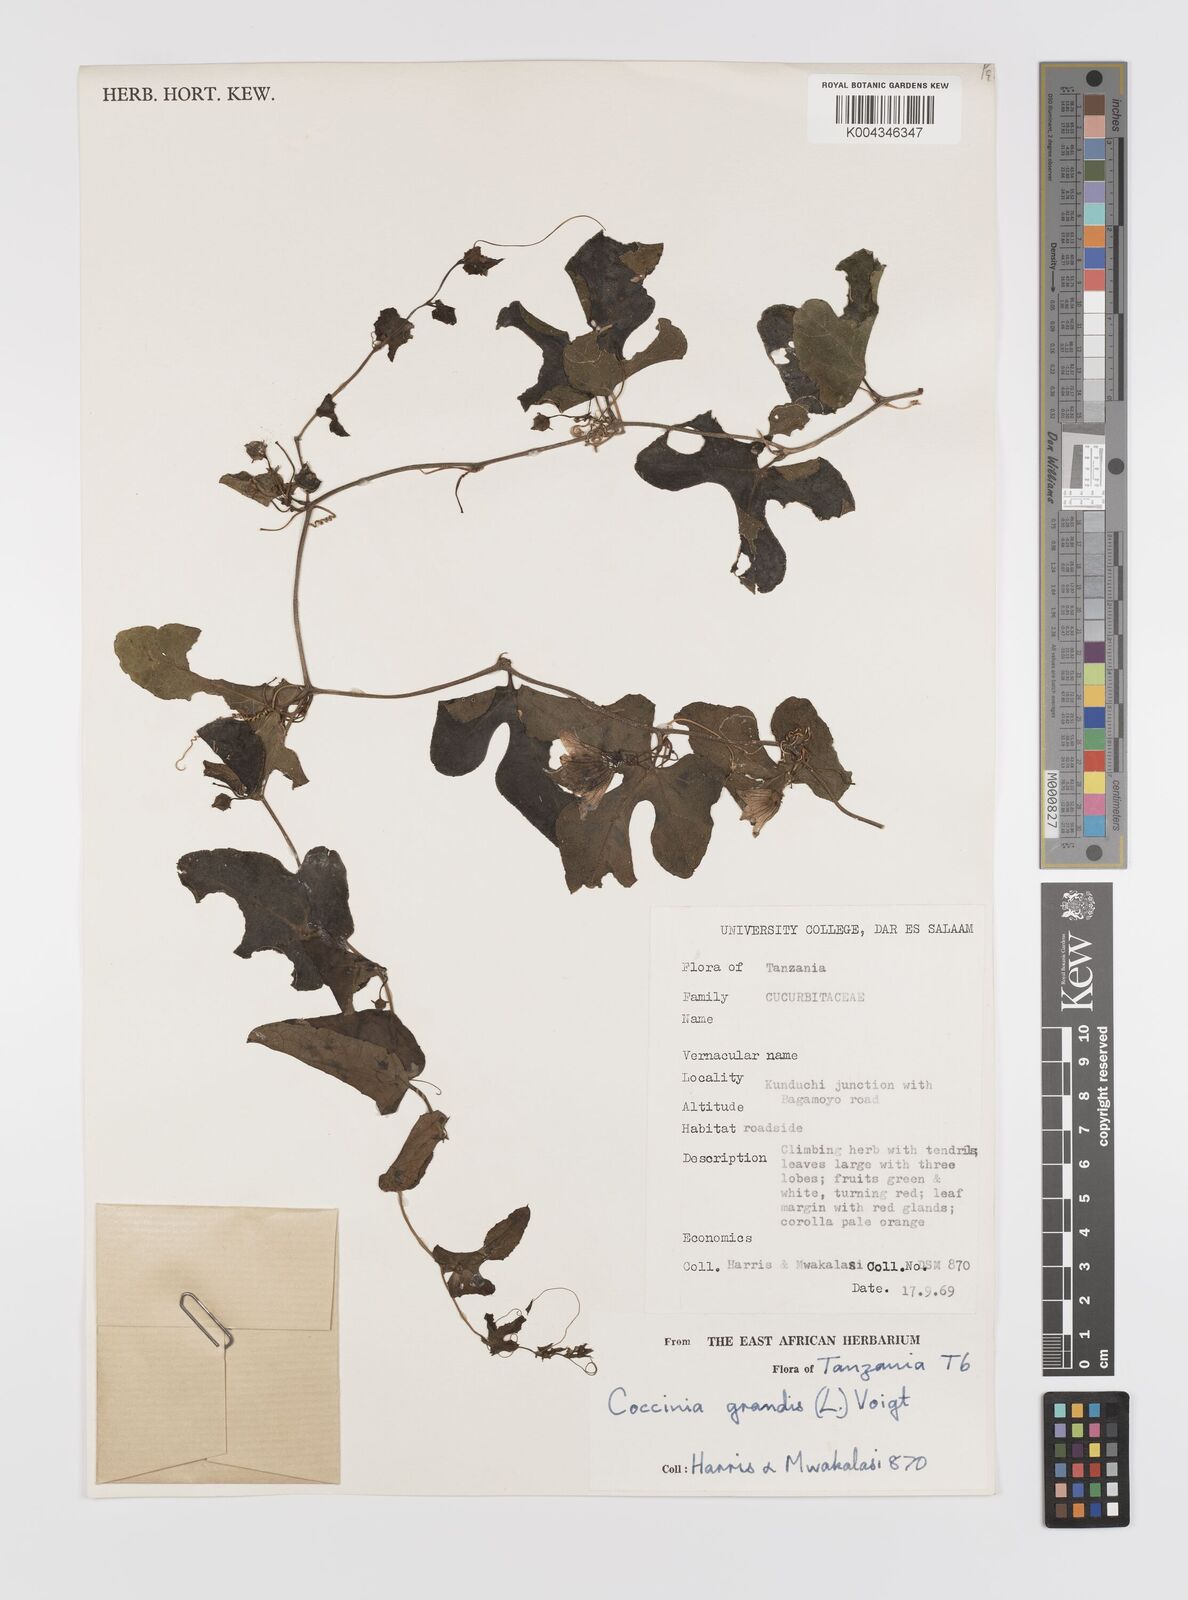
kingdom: Plantae
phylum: Tracheophyta
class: Magnoliopsida
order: Cucurbitales
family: Cucurbitaceae
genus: Coccinia
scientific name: Coccinia grandis
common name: Ivy gourd
